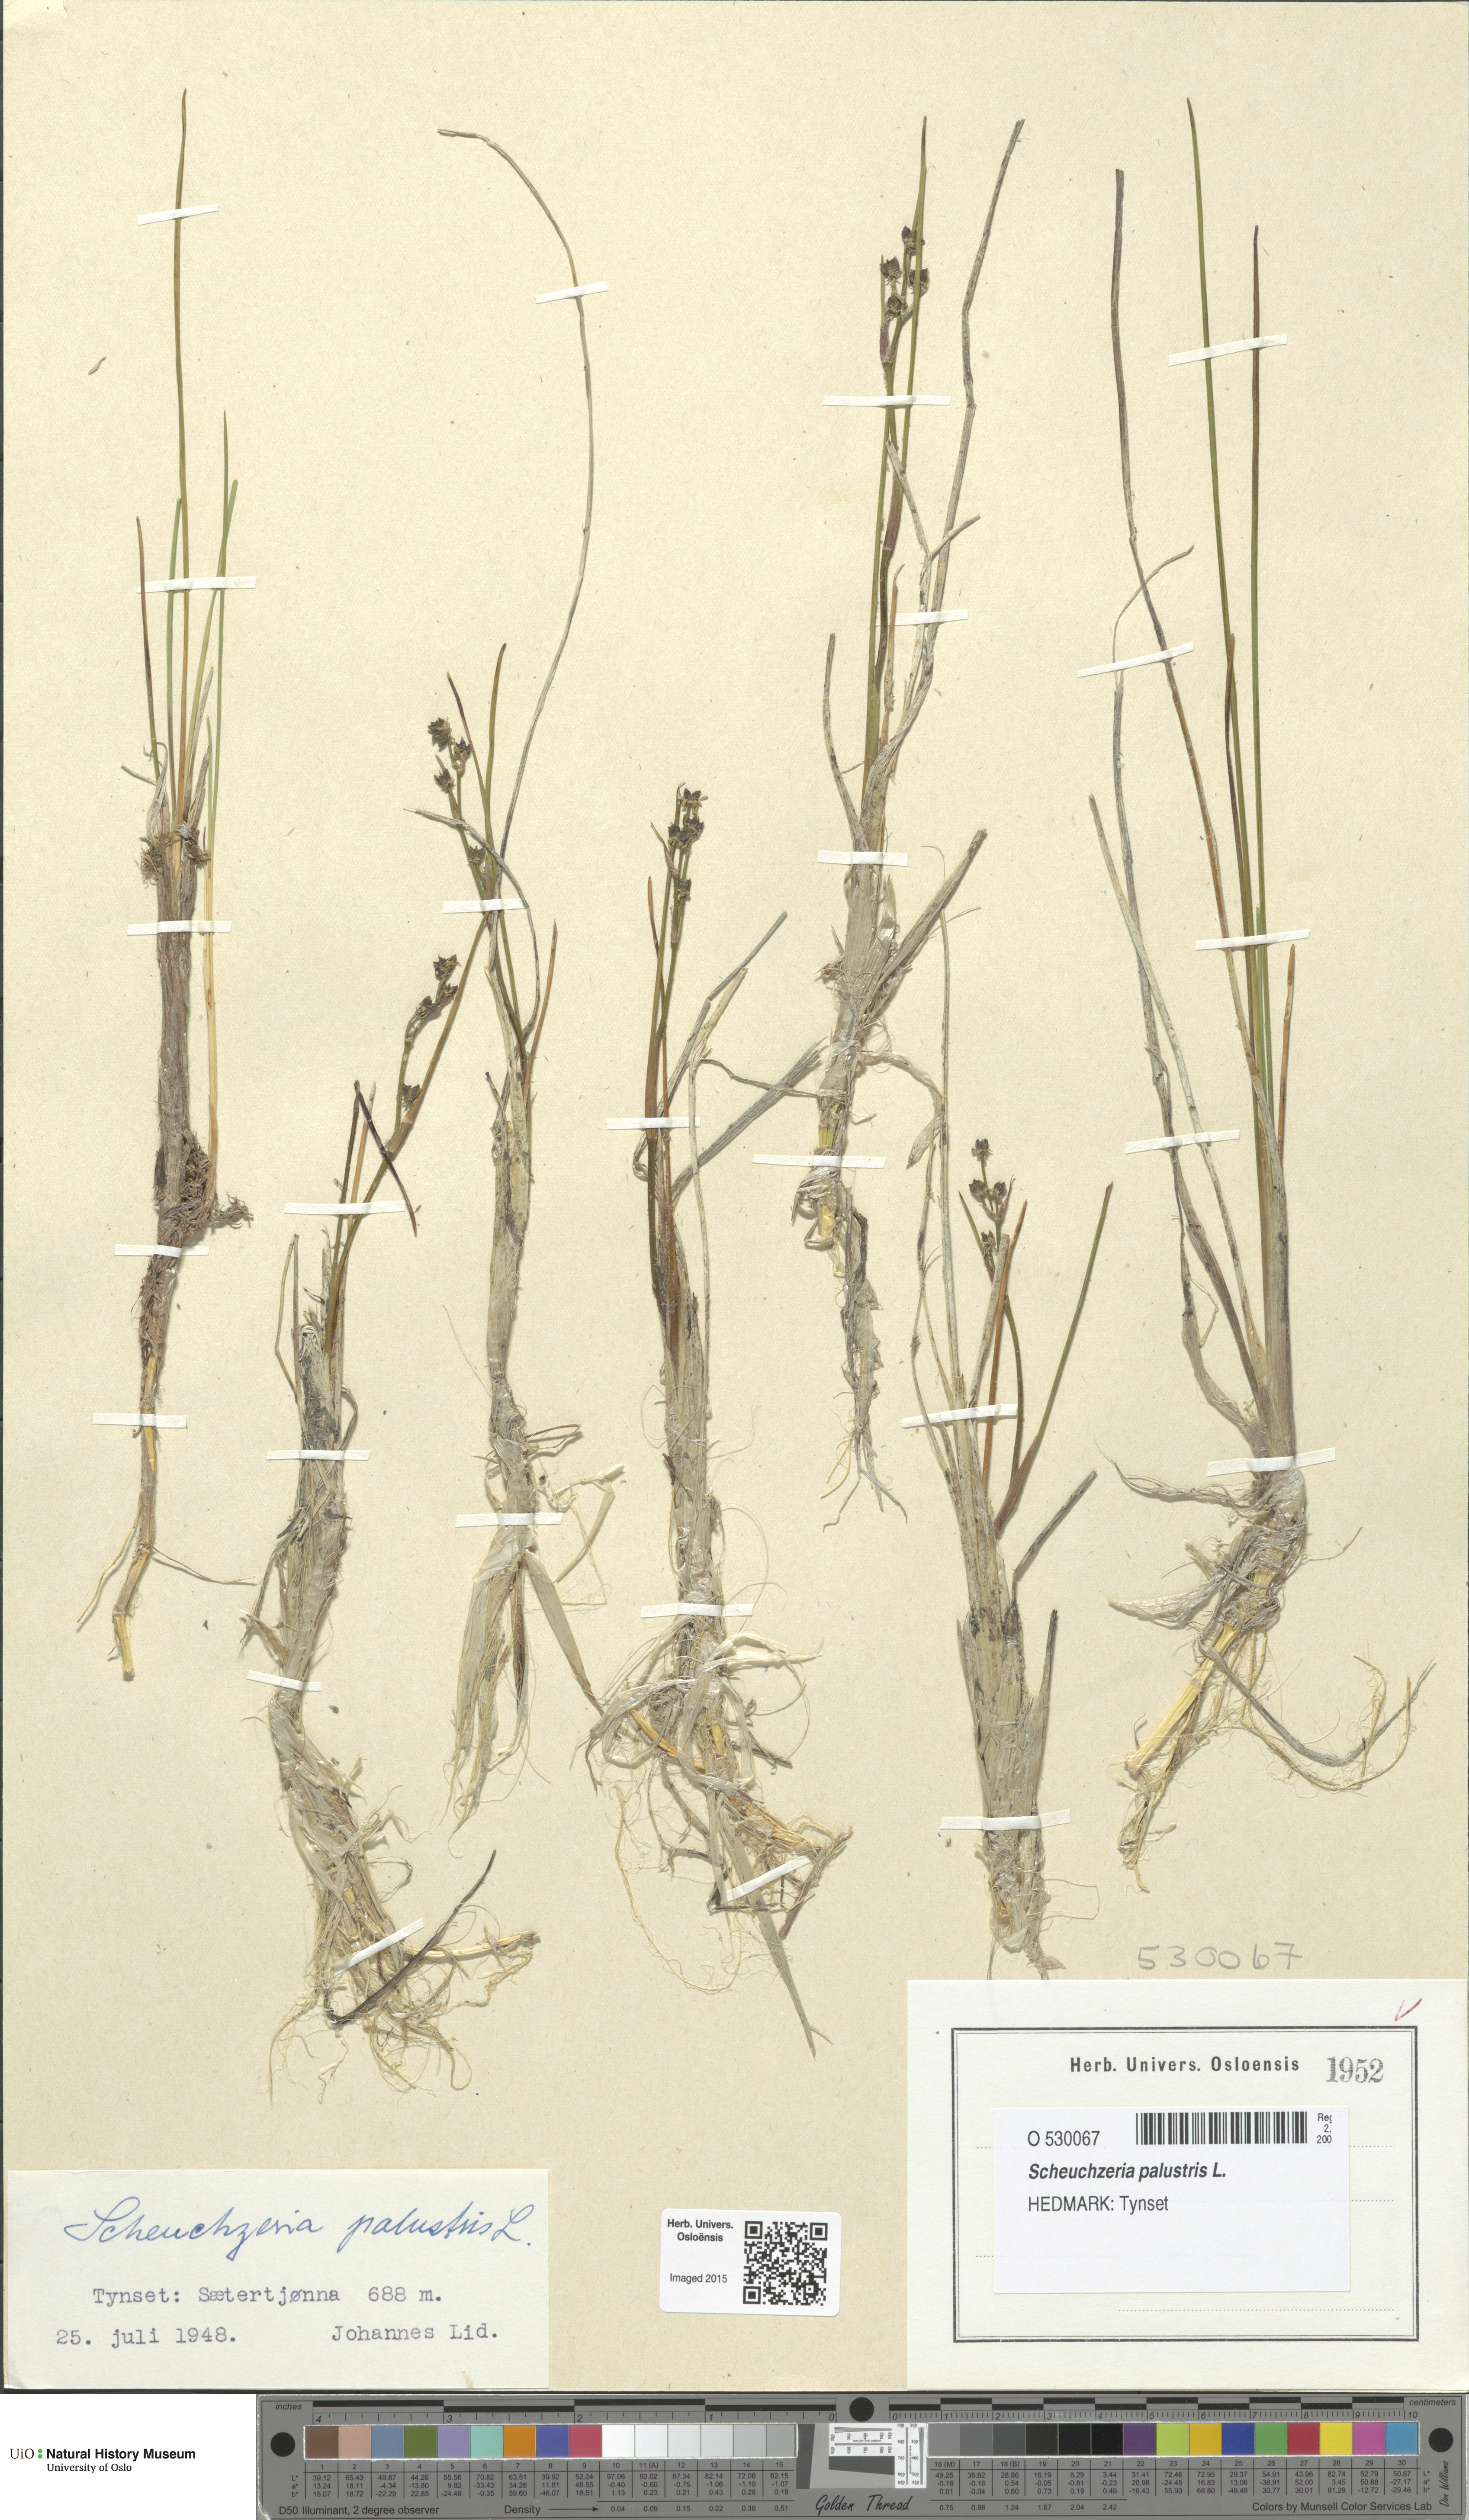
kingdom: Plantae
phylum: Tracheophyta
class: Liliopsida
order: Alismatales
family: Scheuchzeriaceae
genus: Scheuchzeria
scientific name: Scheuchzeria palustris
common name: Rannoch-rush
